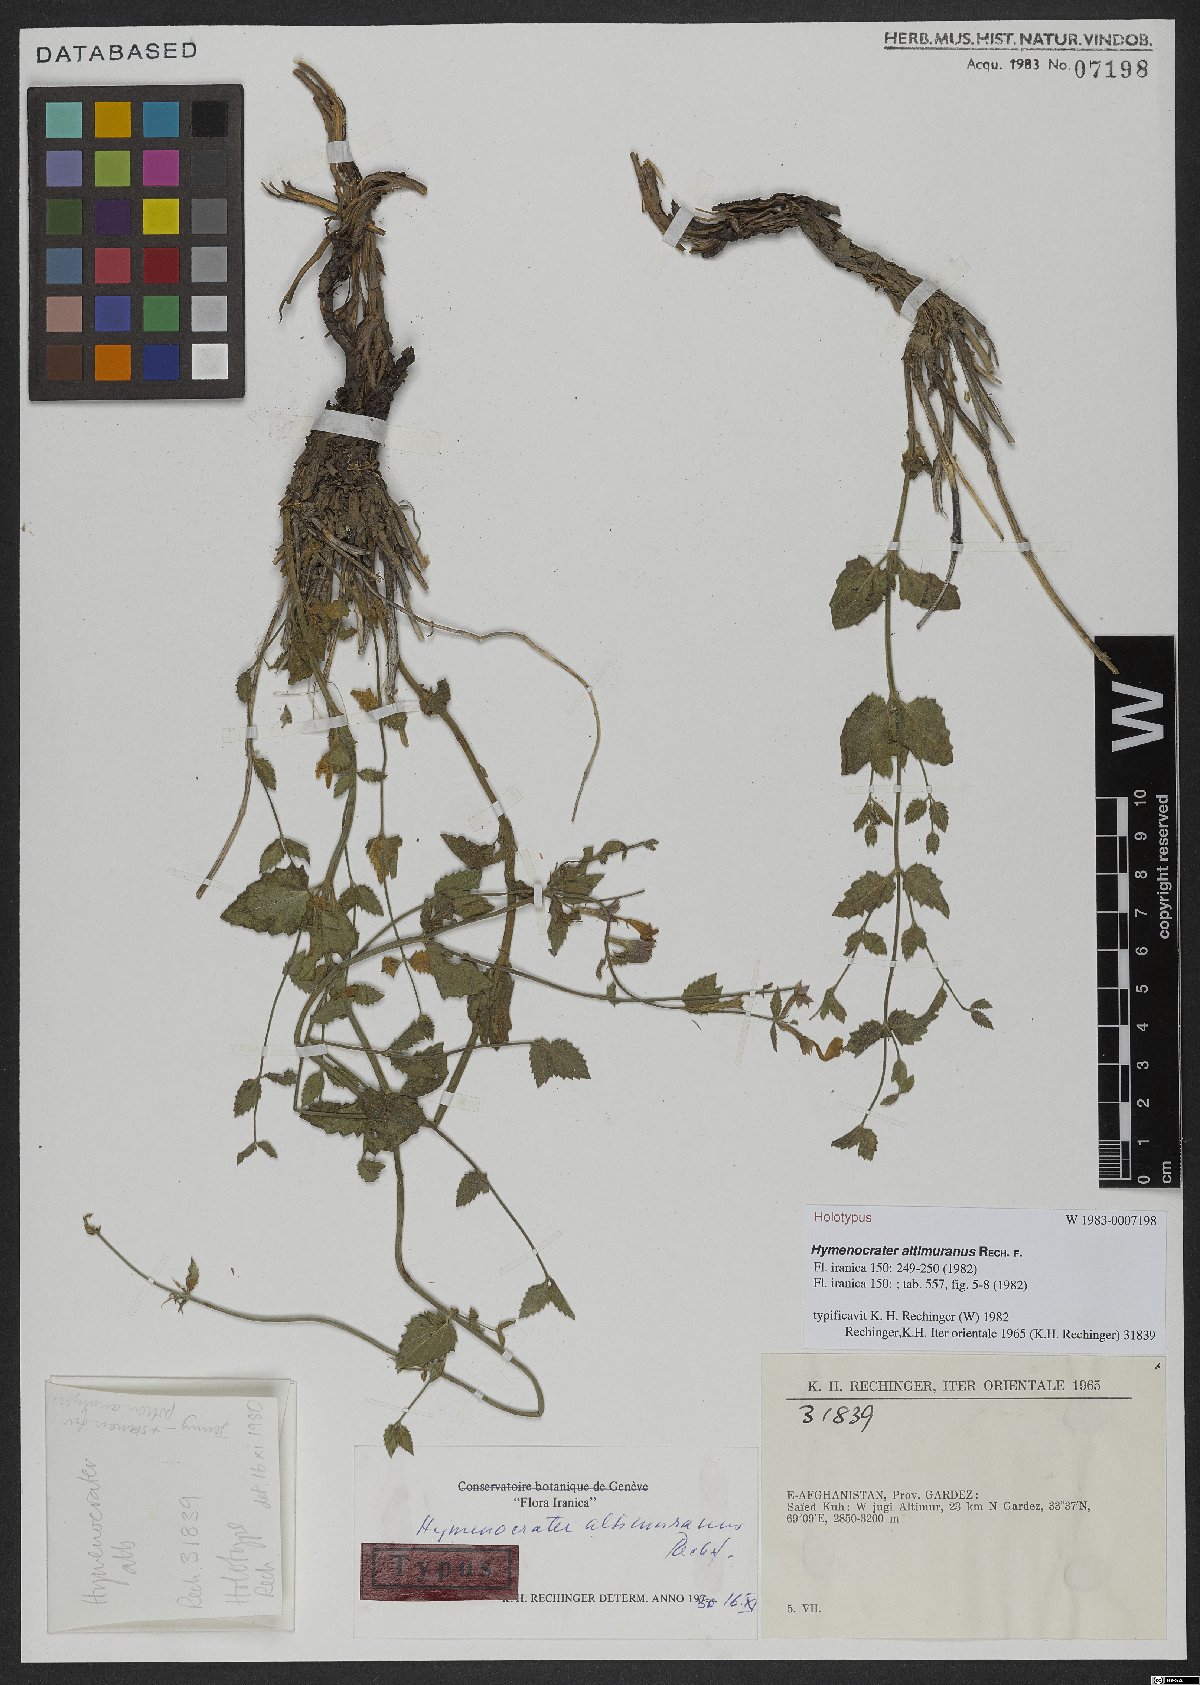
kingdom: Plantae
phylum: Tracheophyta
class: Magnoliopsida
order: Lamiales
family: Lamiaceae
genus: Nepeta
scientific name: Nepeta altimurana
